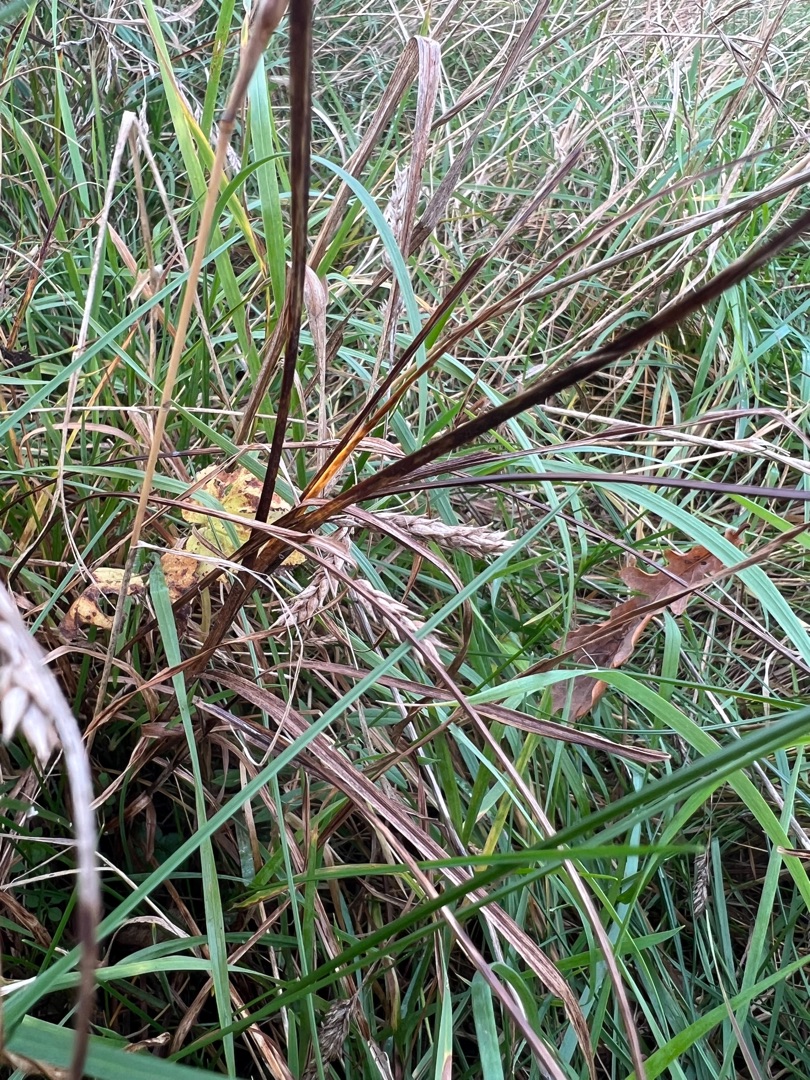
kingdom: Plantae
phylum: Tracheophyta
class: Liliopsida
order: Poales
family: Cyperaceae
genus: Carex
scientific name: Carex hirta
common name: Håret star
